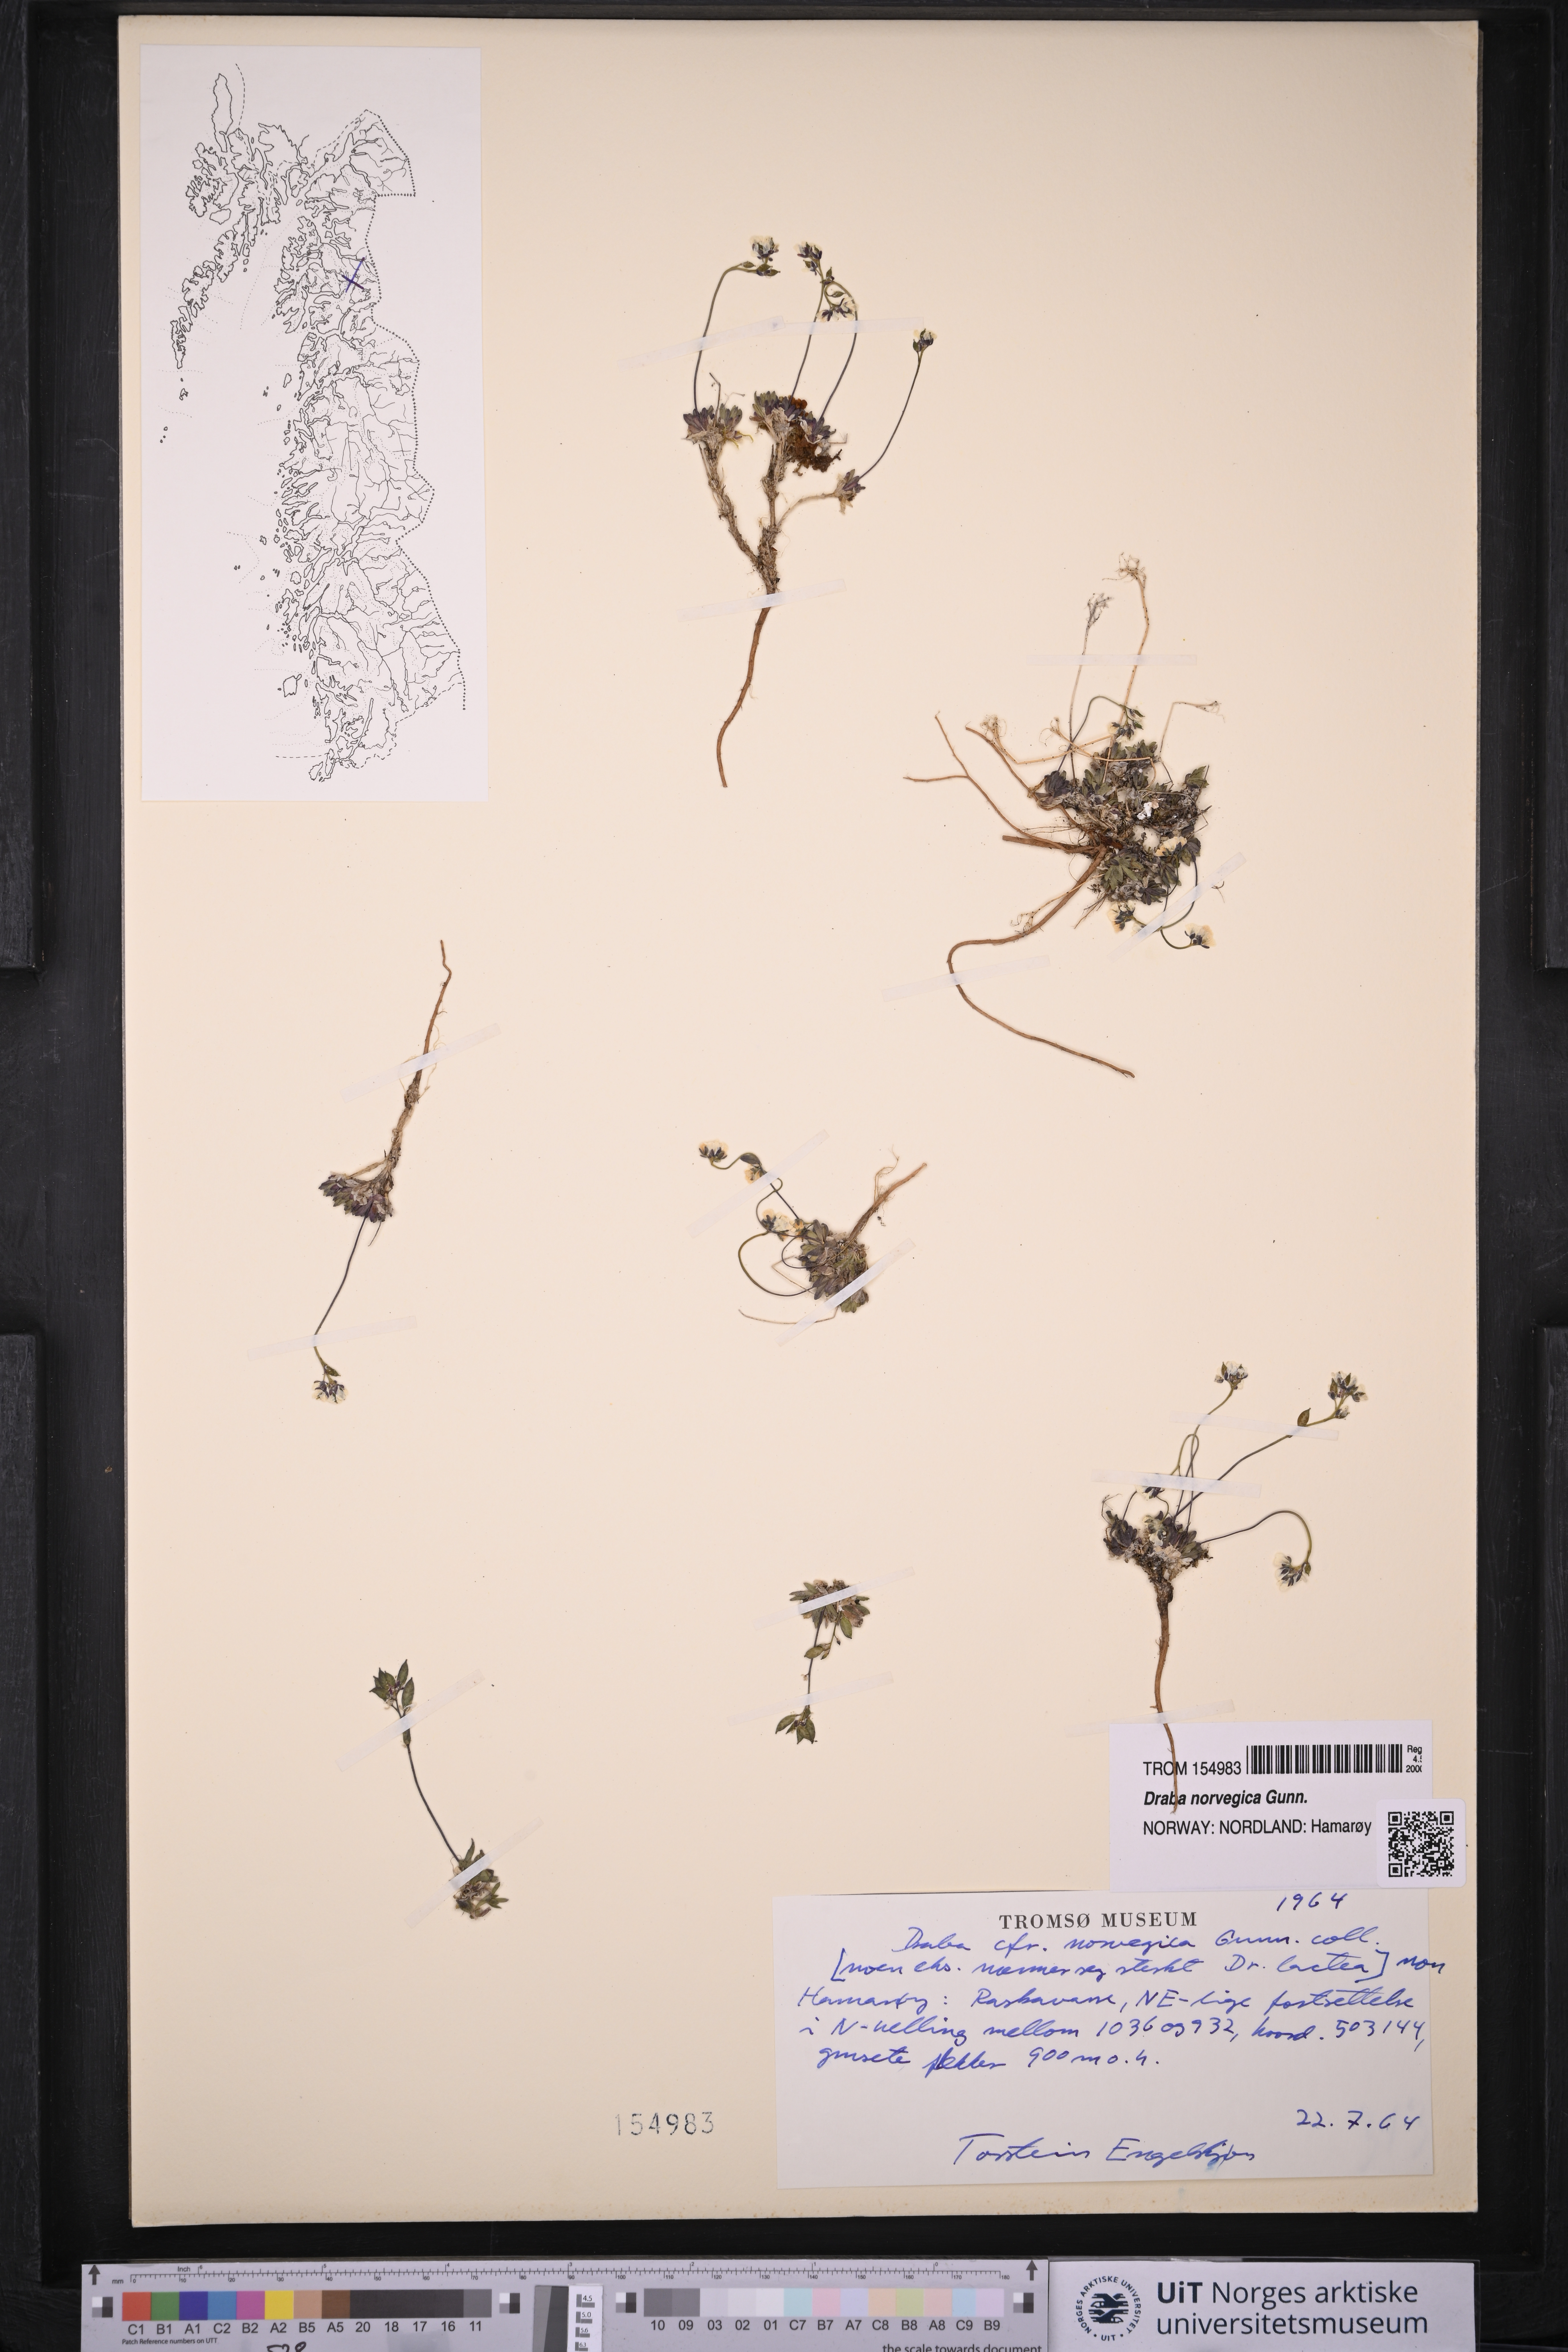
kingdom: Plantae
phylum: Tracheophyta
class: Magnoliopsida
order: Brassicales
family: Brassicaceae
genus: Draba
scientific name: Draba norvegica
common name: Rock whitlowgrass
